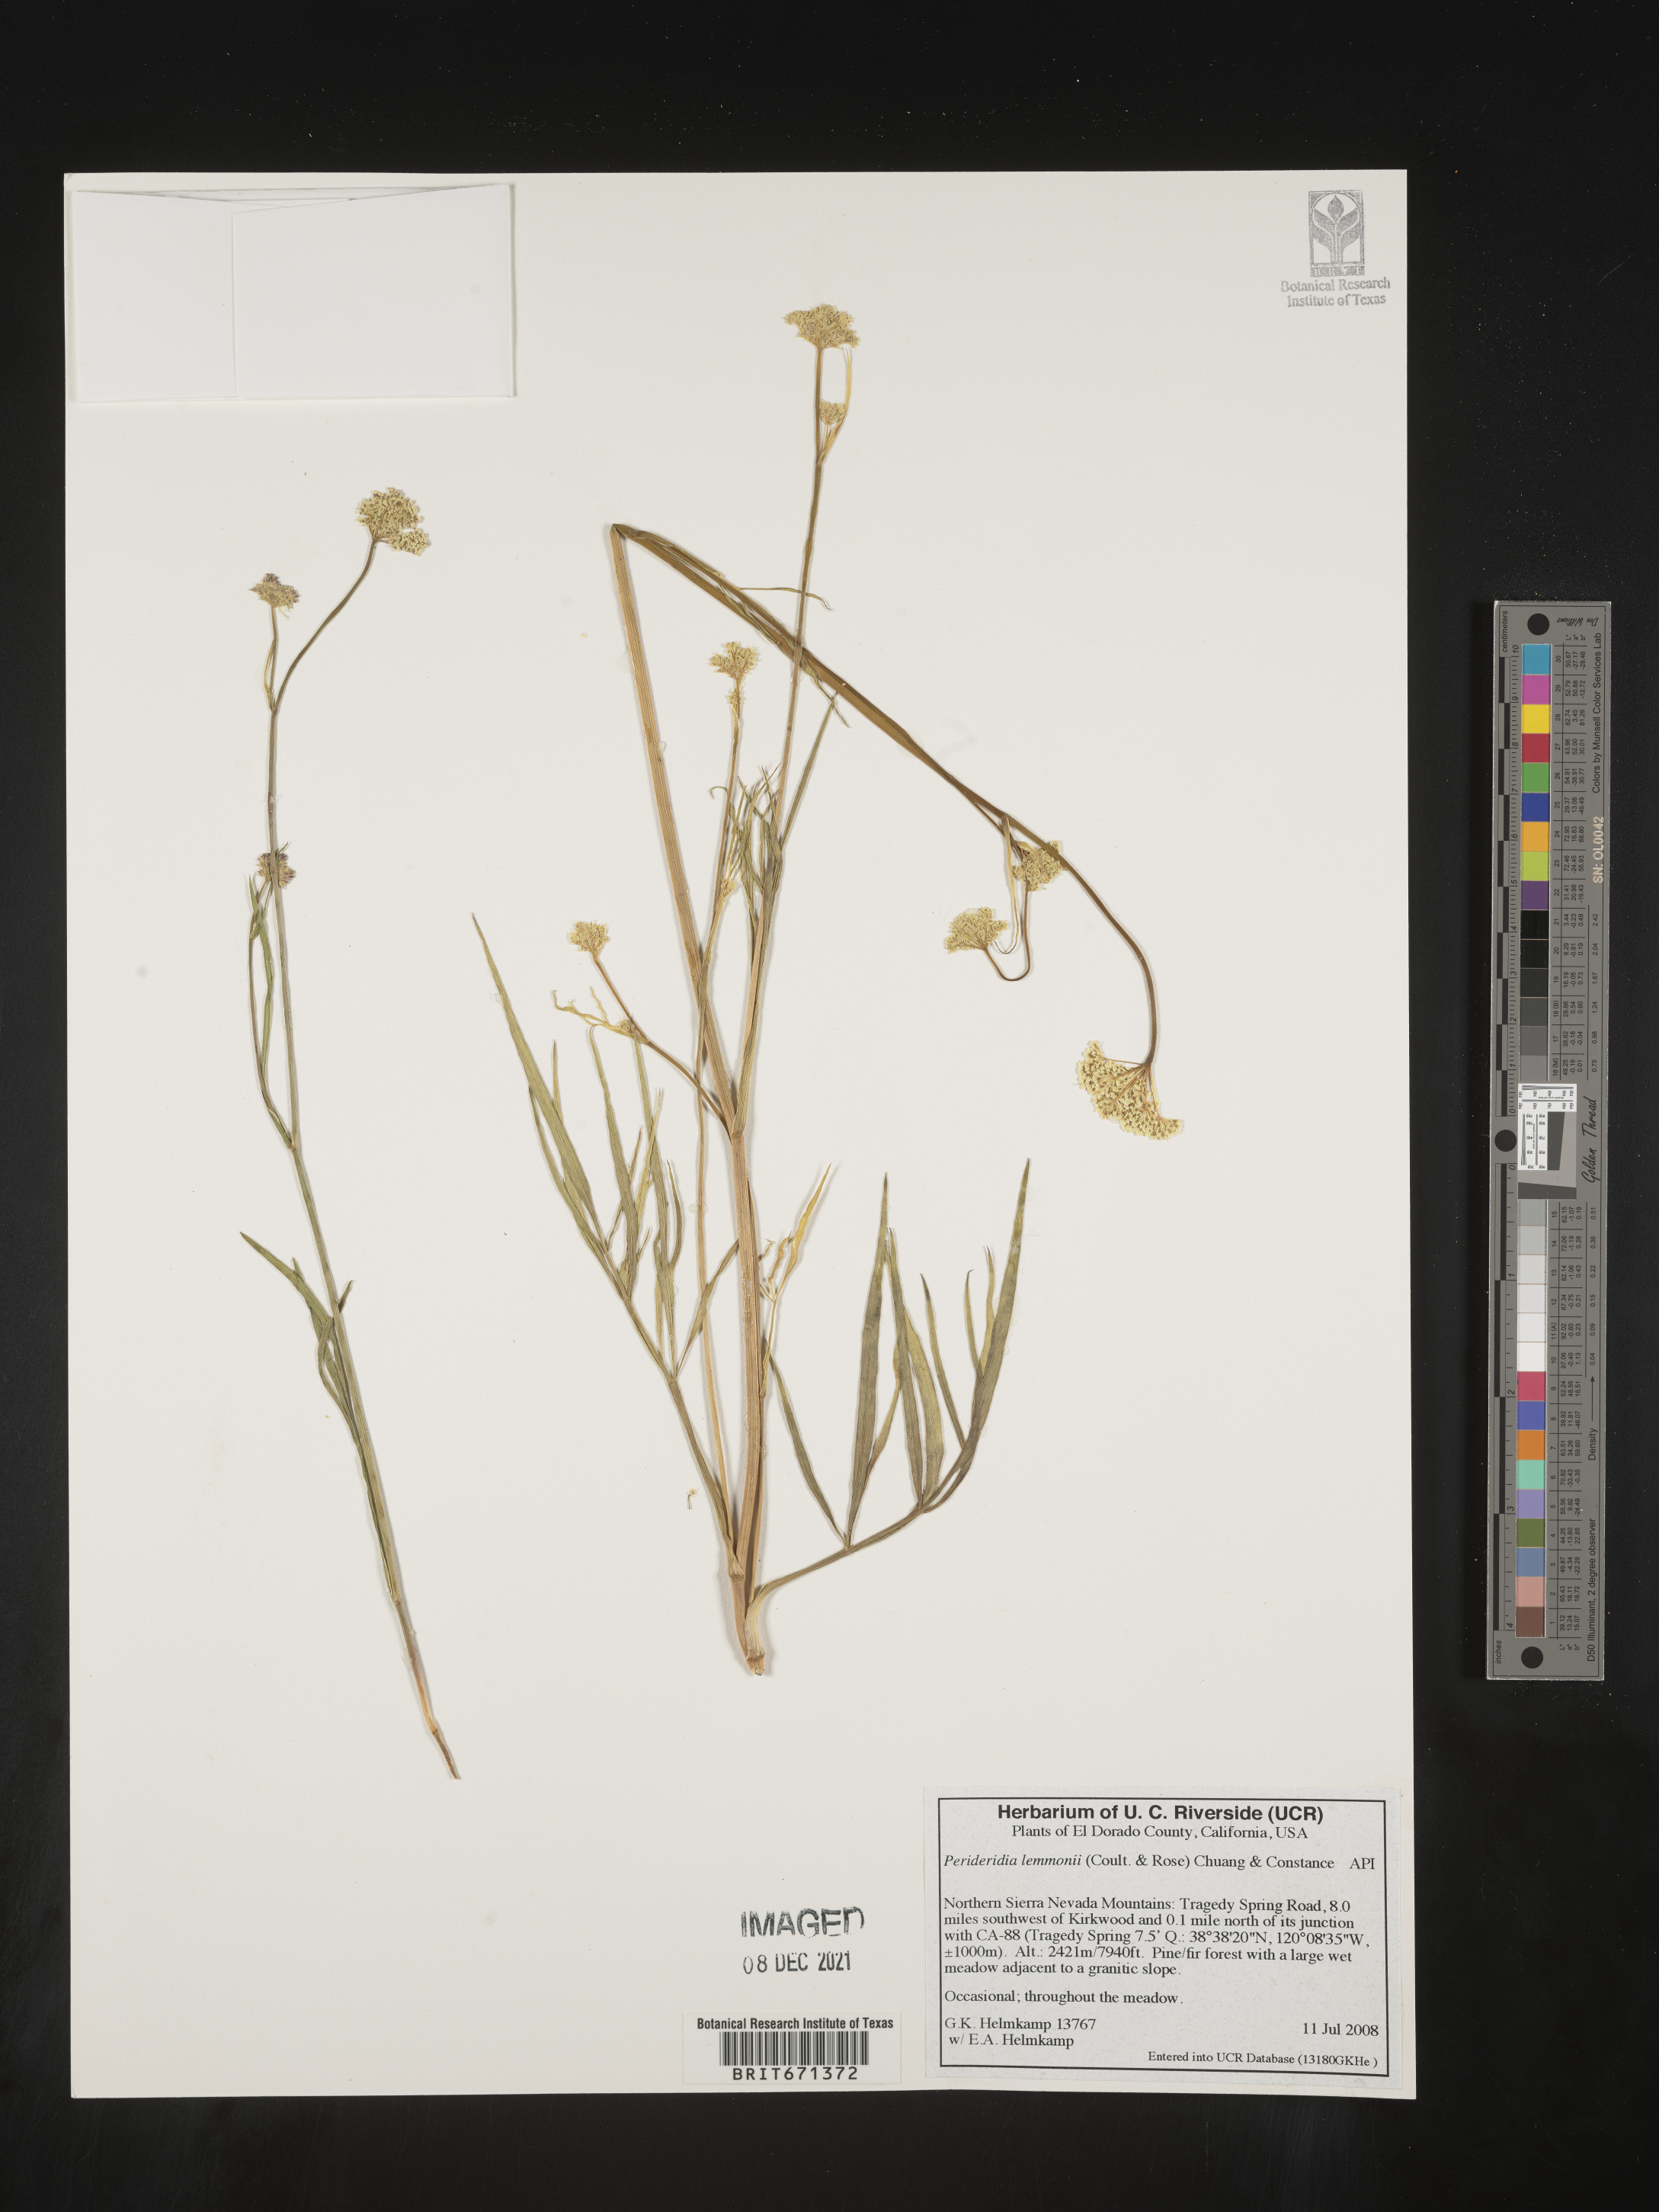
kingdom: Plantae
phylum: Tracheophyta
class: Magnoliopsida
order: Apiales
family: Apiaceae
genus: Perideridia
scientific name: Perideridia lemmonii
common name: Tuni
